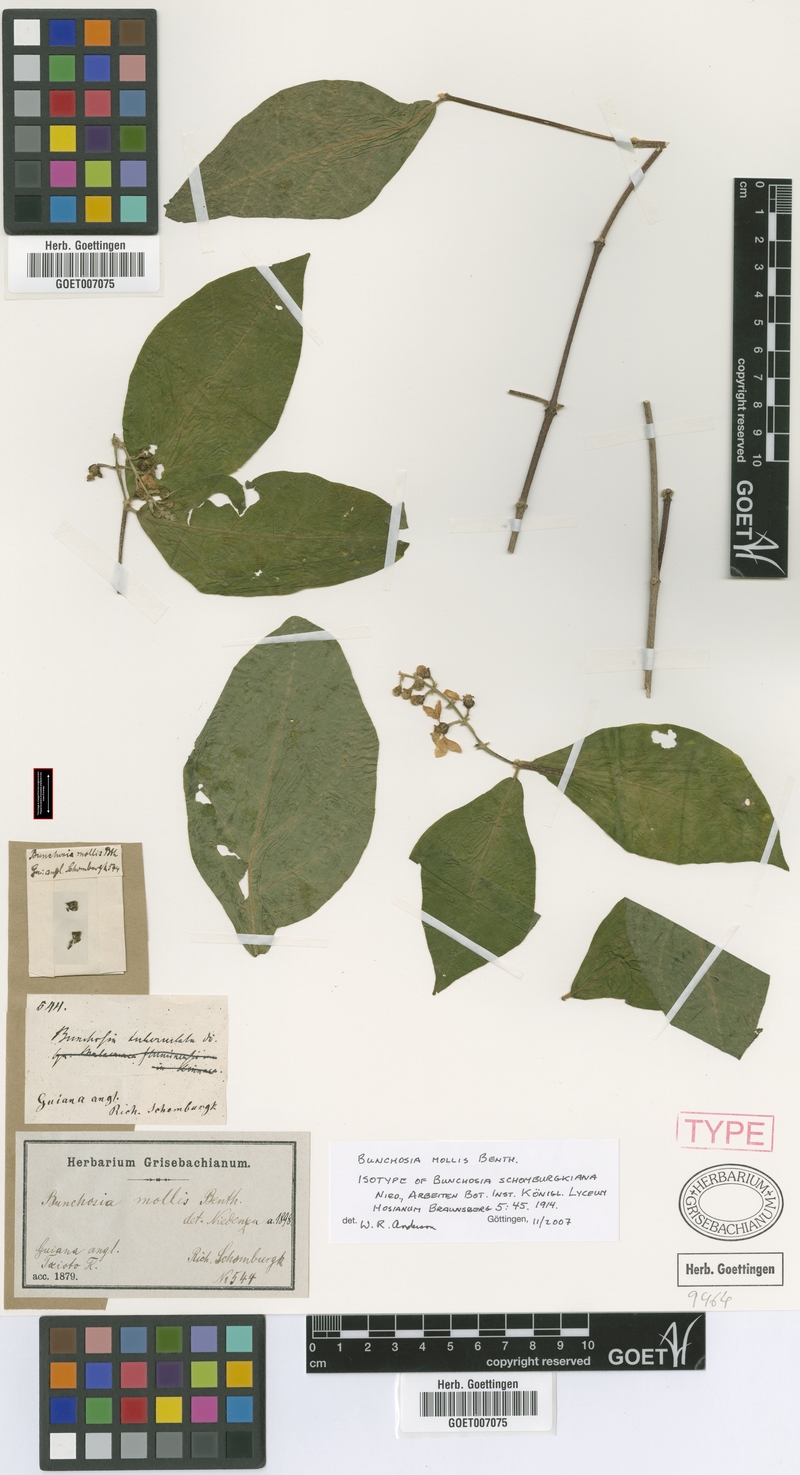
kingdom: Plantae
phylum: Tracheophyta
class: Magnoliopsida
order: Malpighiales
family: Malpighiaceae
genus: Bunchosia
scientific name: Bunchosia mollis
